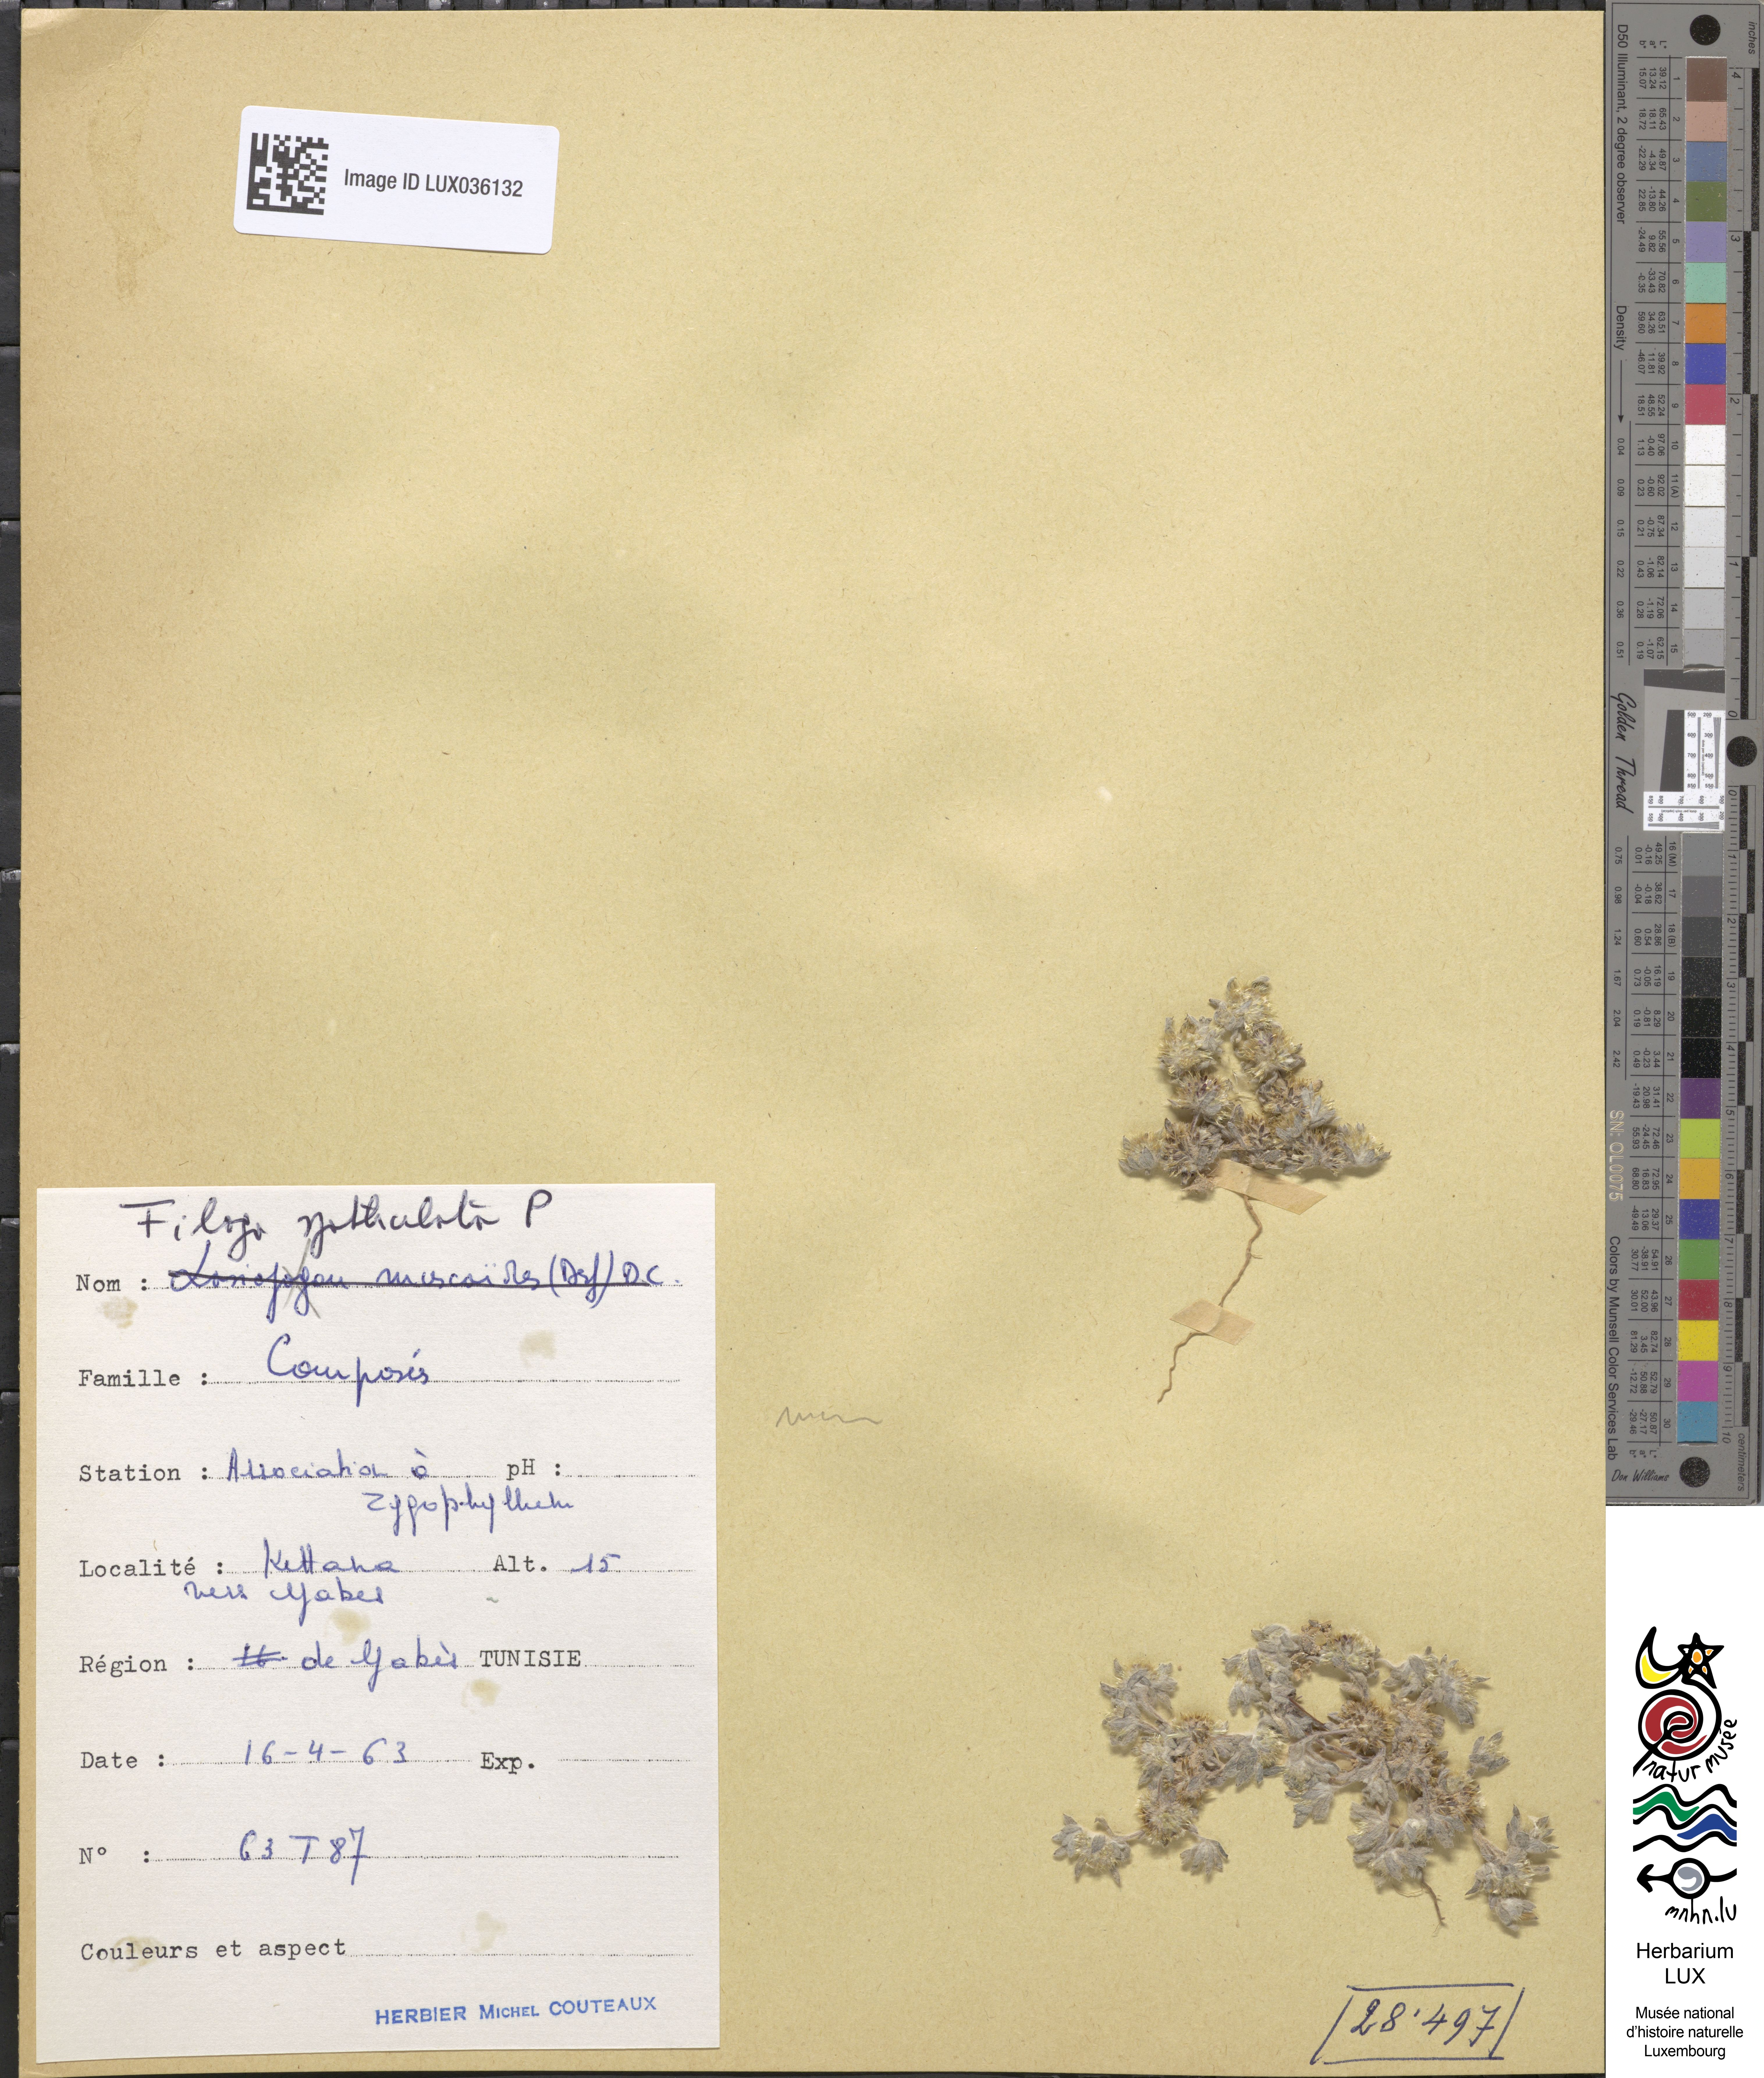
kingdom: Plantae
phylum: Tracheophyta
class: Magnoliopsida
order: Asterales
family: Asteraceae
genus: Filago
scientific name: Filago pyramidata
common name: Broad-leaved cudweed
